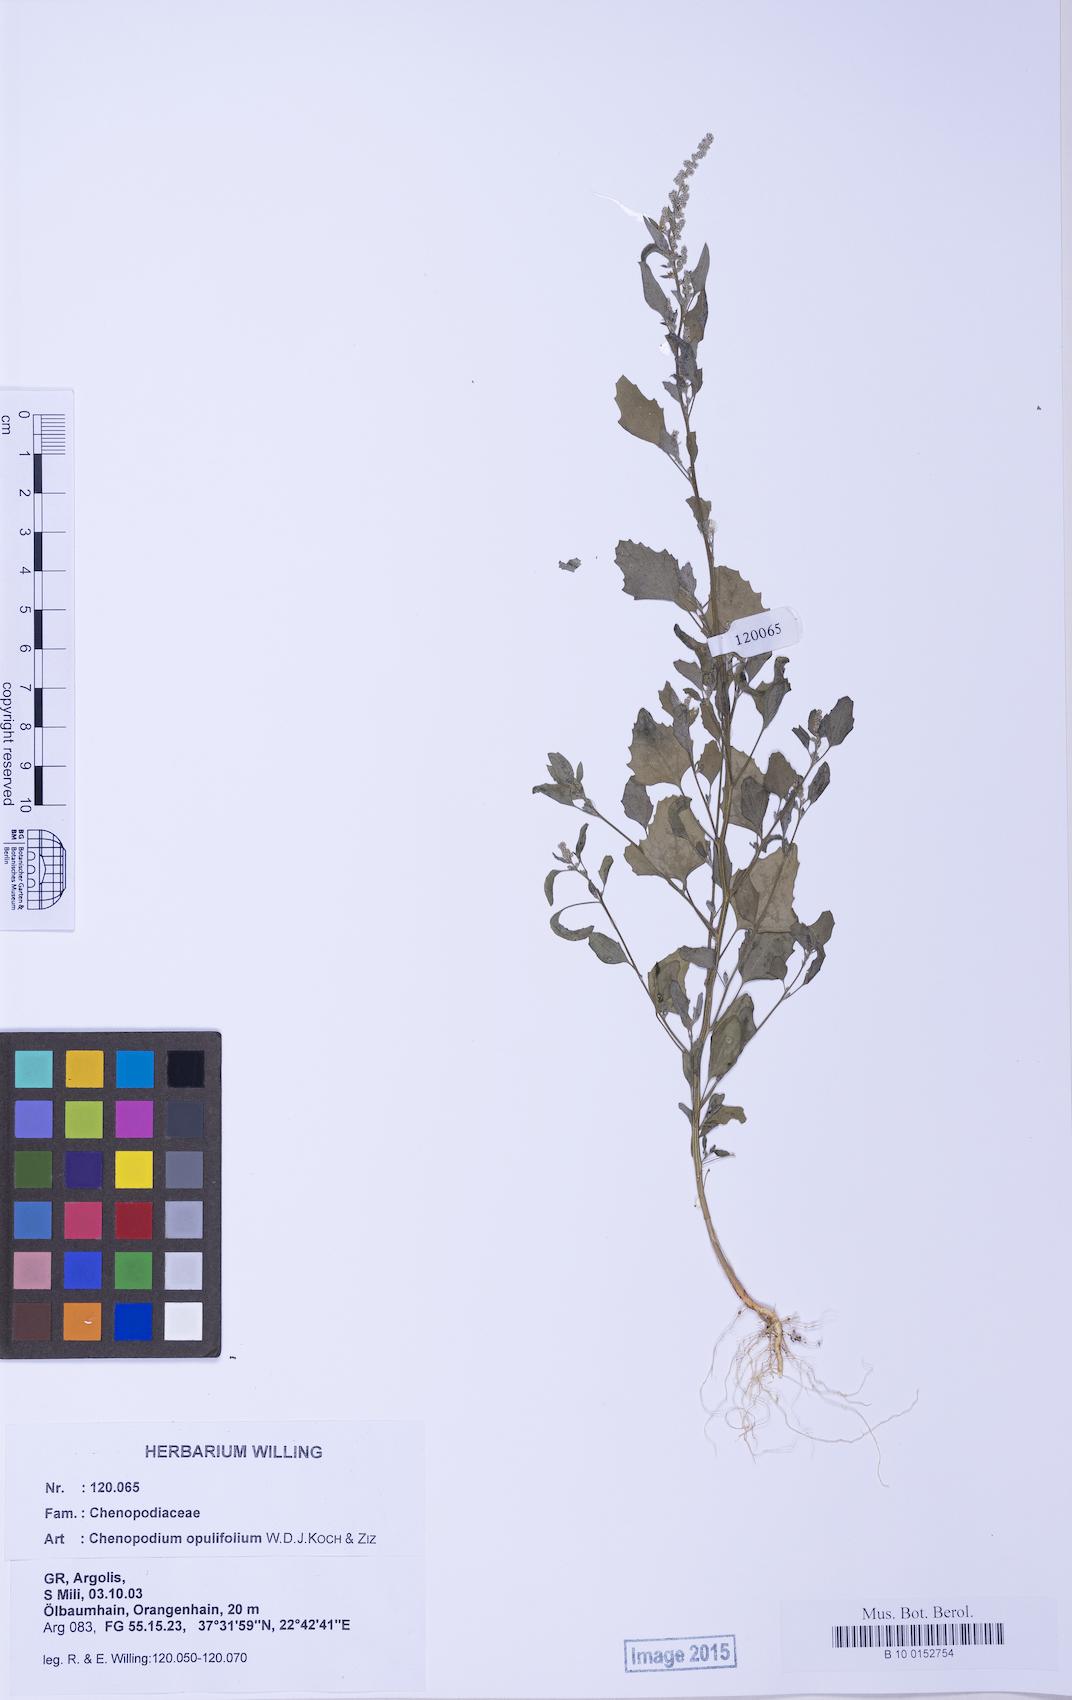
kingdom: Plantae
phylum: Tracheophyta
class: Magnoliopsida
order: Caryophyllales
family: Amaranthaceae
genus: Chenopodium
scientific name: Chenopodium album
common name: Fat-hen
